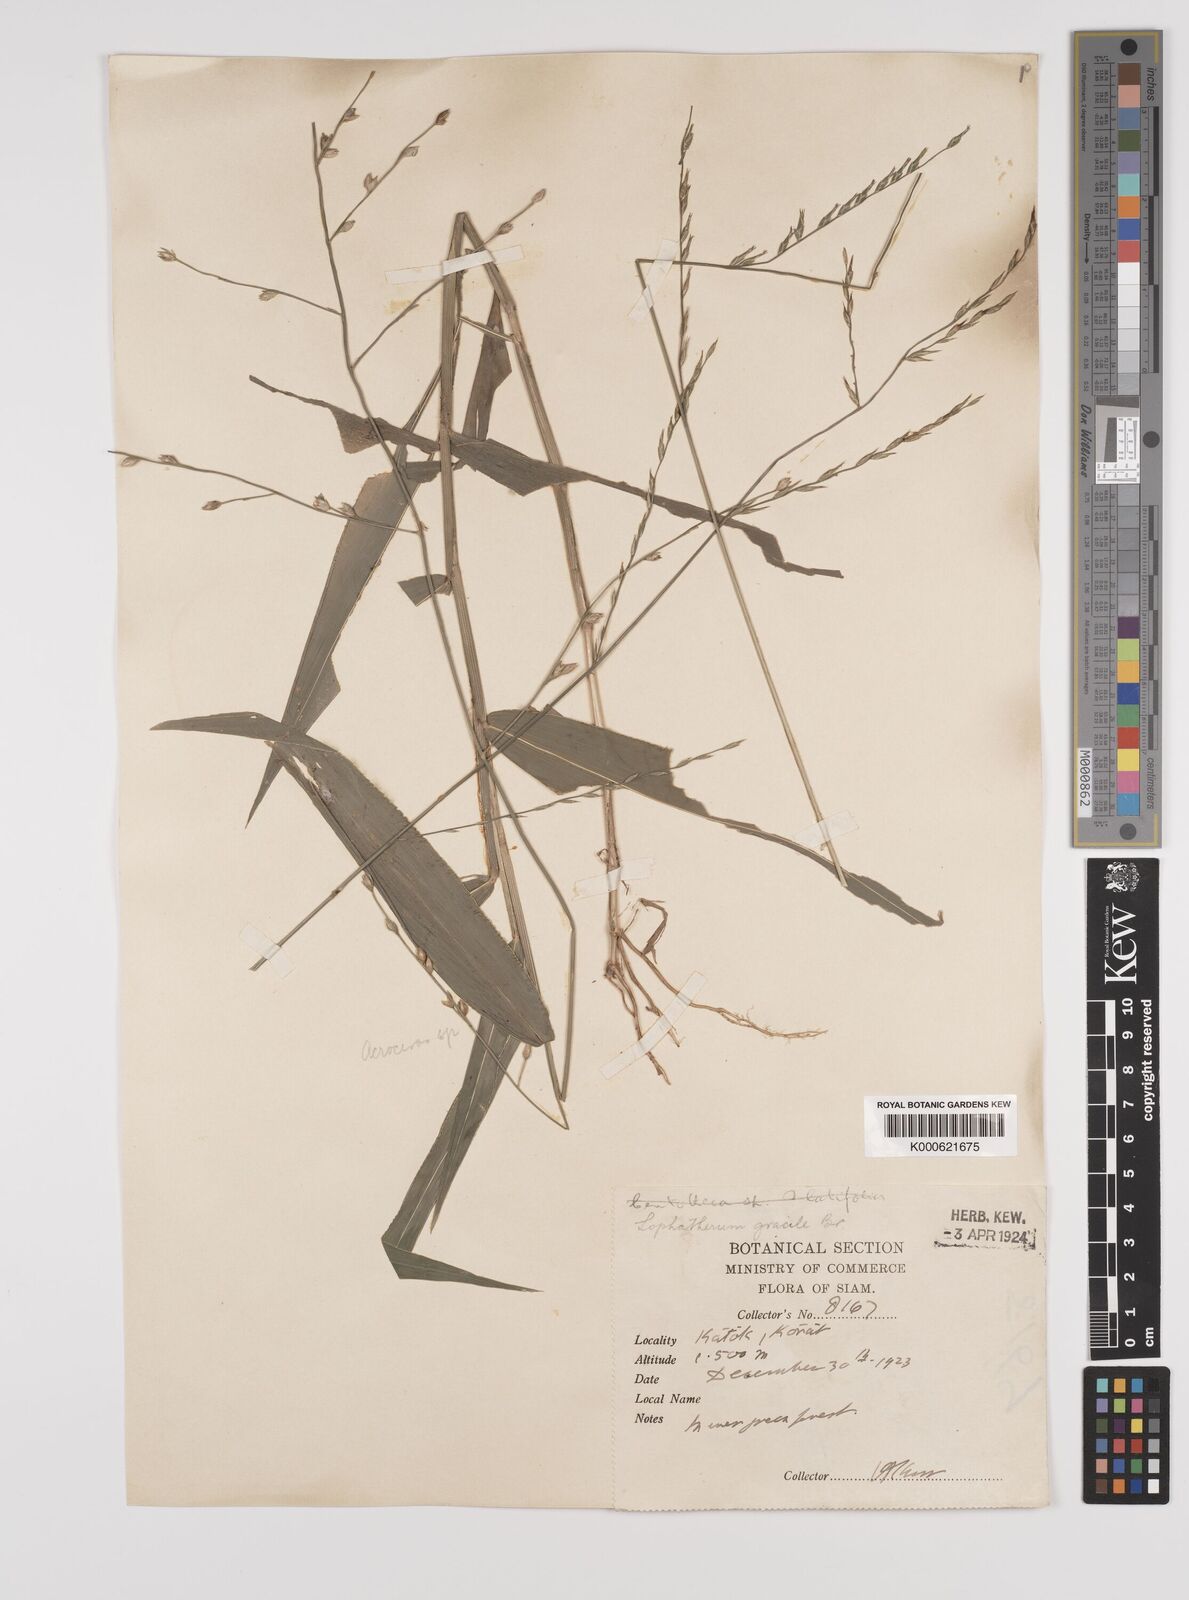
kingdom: Plantae
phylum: Tracheophyta
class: Liliopsida
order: Poales
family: Poaceae
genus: Lophatherum
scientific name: Lophatherum gracile
